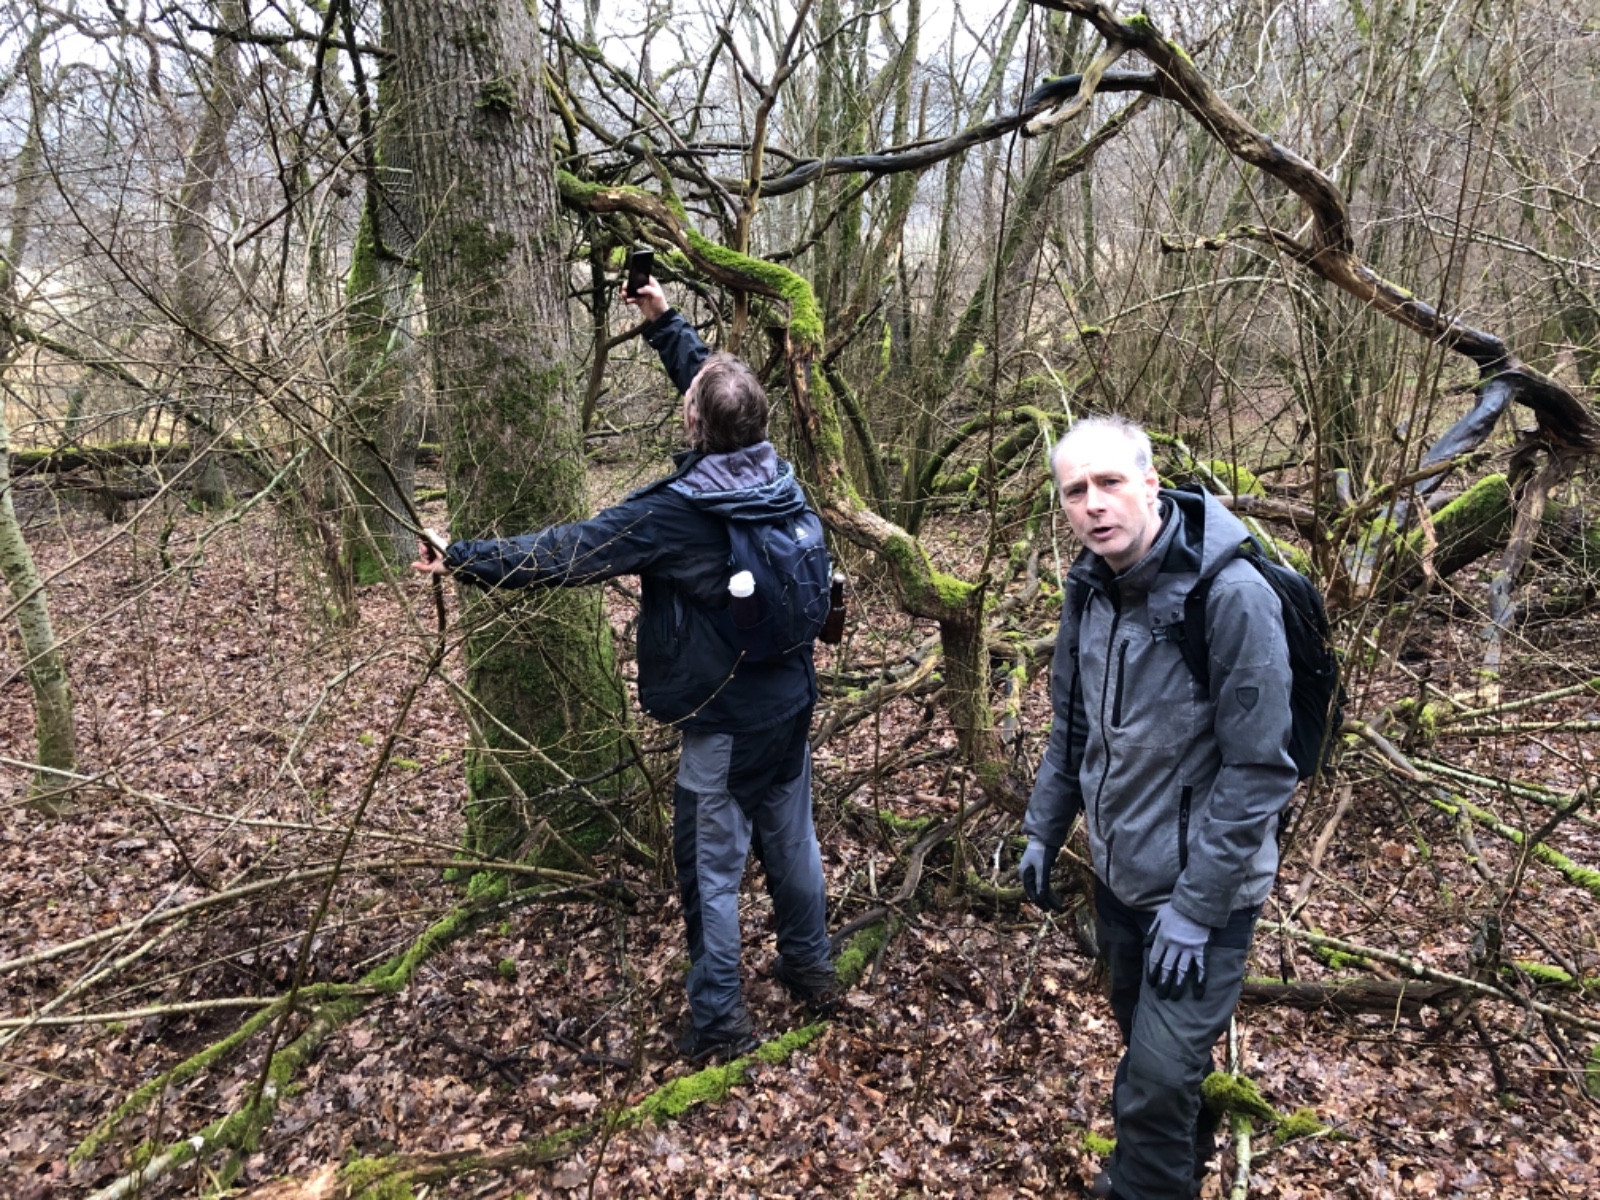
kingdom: Fungi
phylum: Ascomycota
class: Lecanoromycetes
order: Peltigerales
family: Lobariaceae
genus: Lobaria
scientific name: Lobaria pulmonaria
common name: almindelig lungelav
